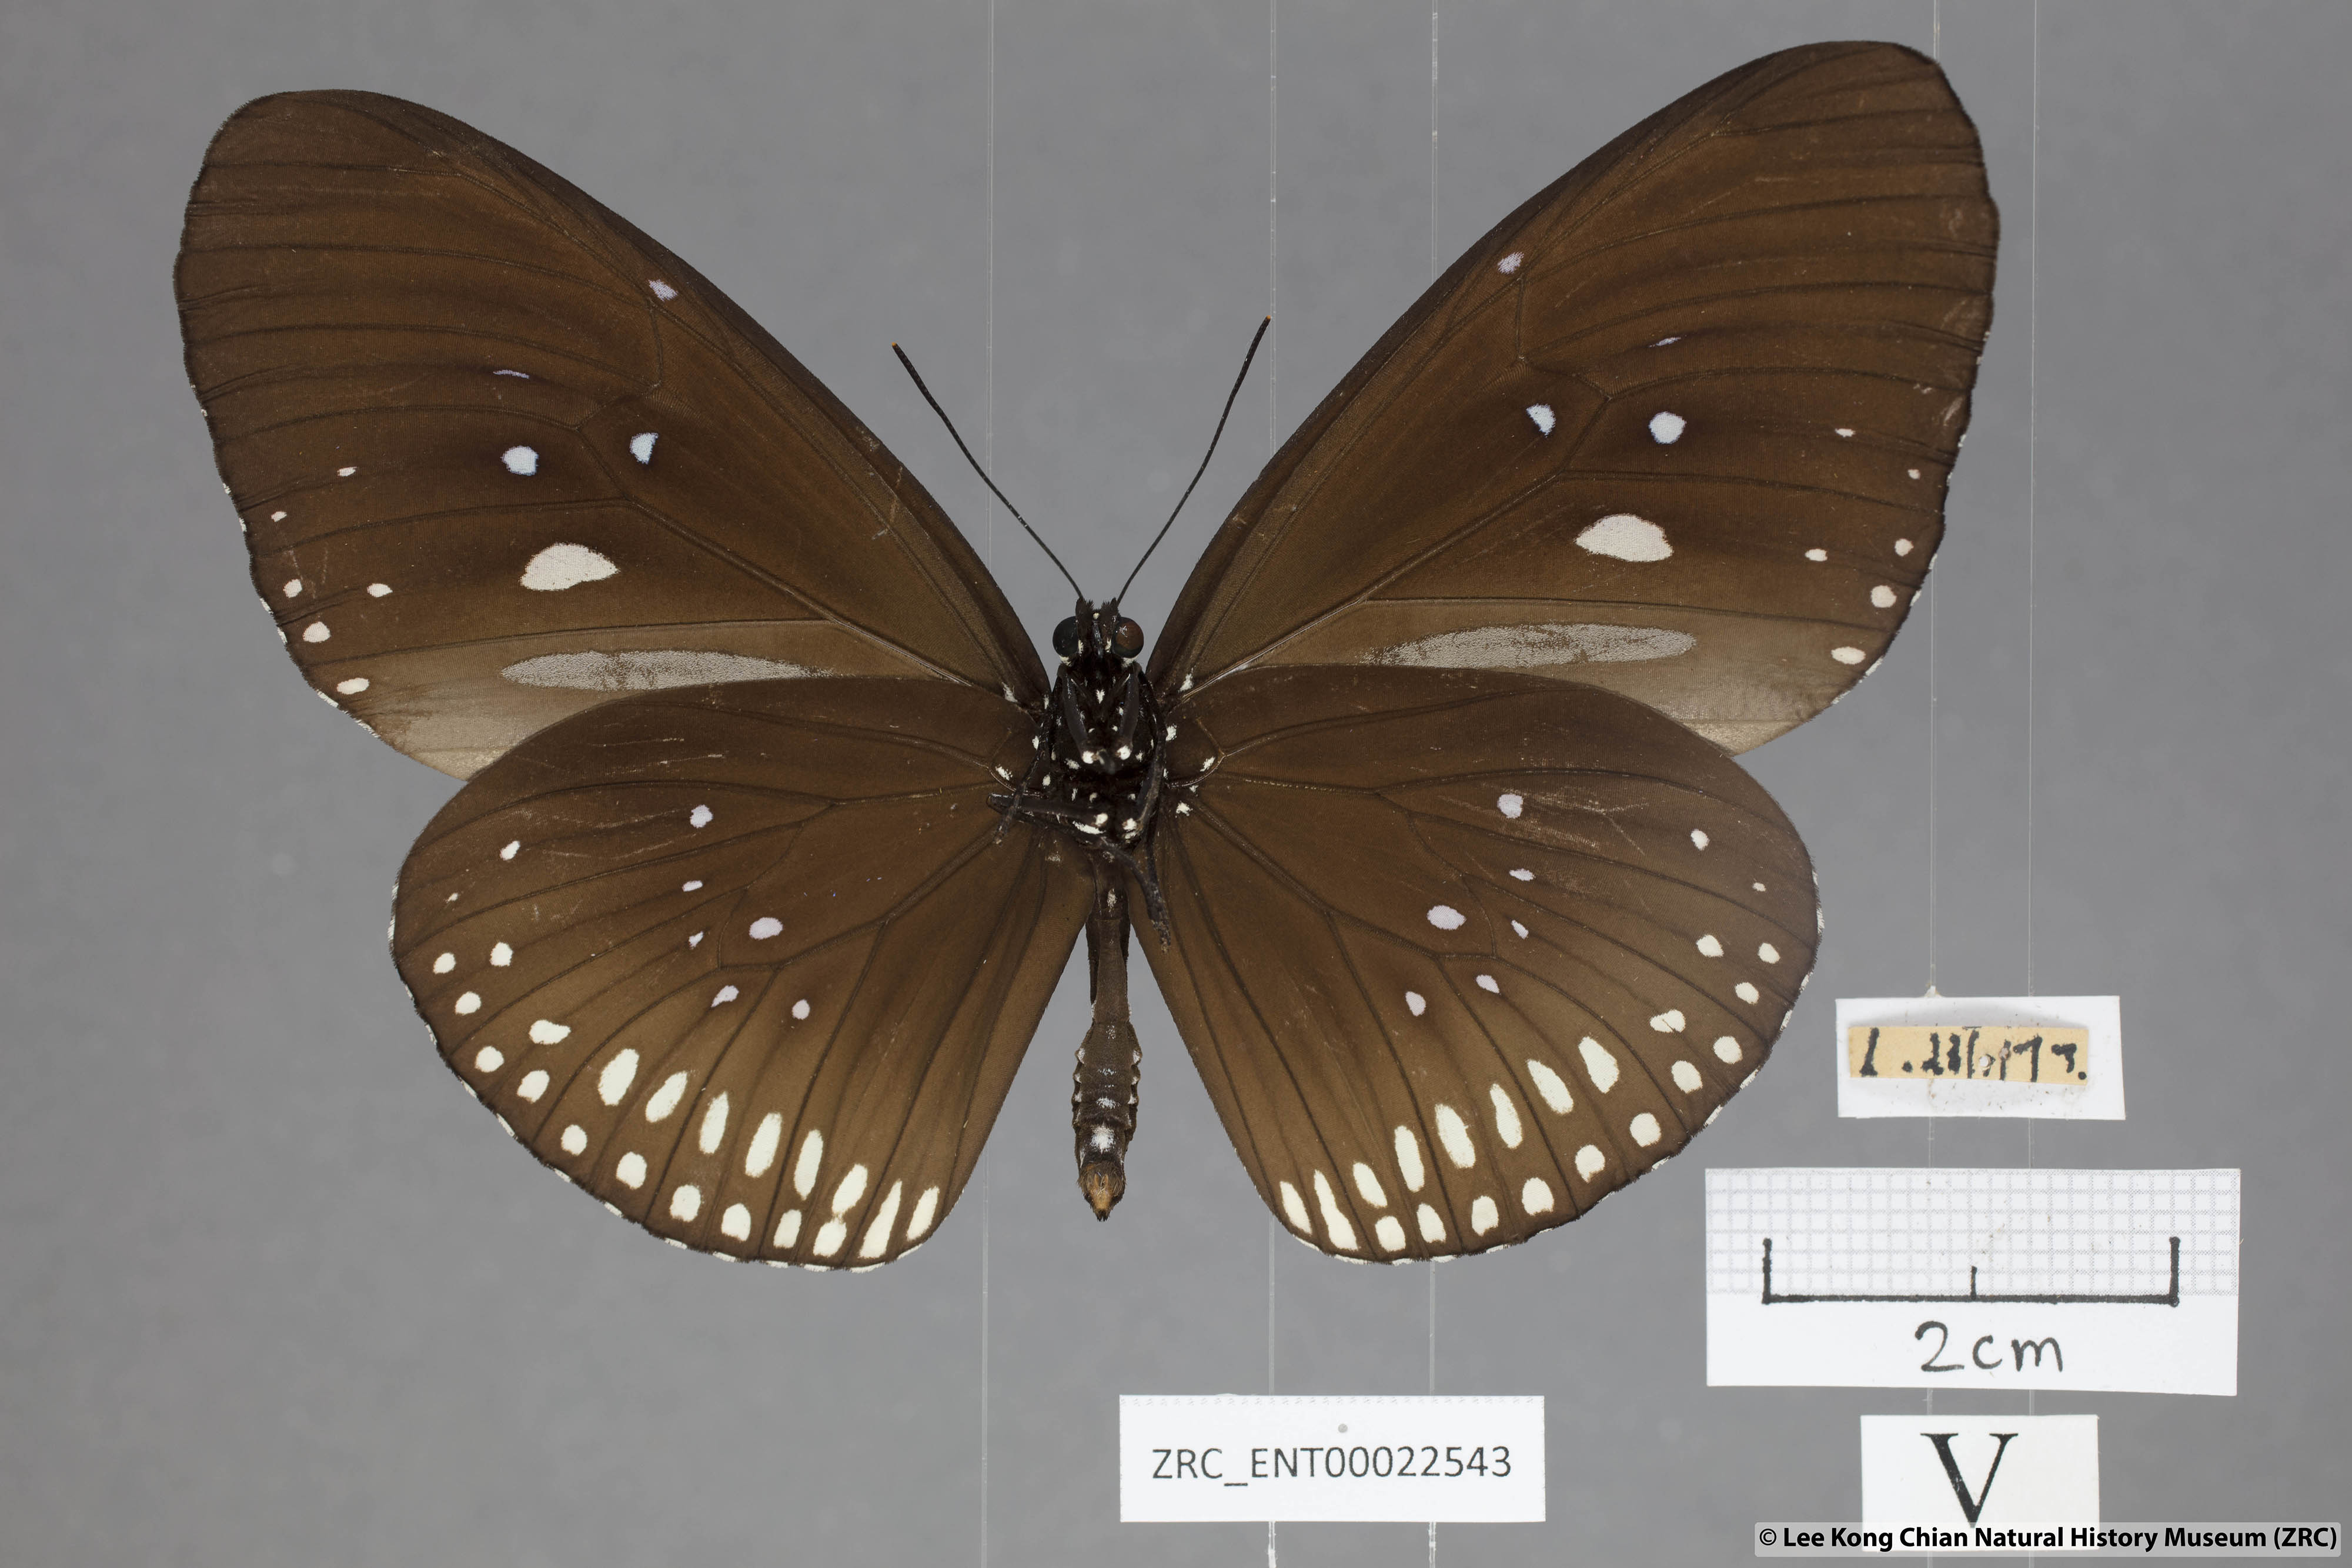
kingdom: Animalia
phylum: Arthropoda
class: Insecta
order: Lepidoptera
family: Nymphalidae
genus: Euploea
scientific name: Euploea algea
